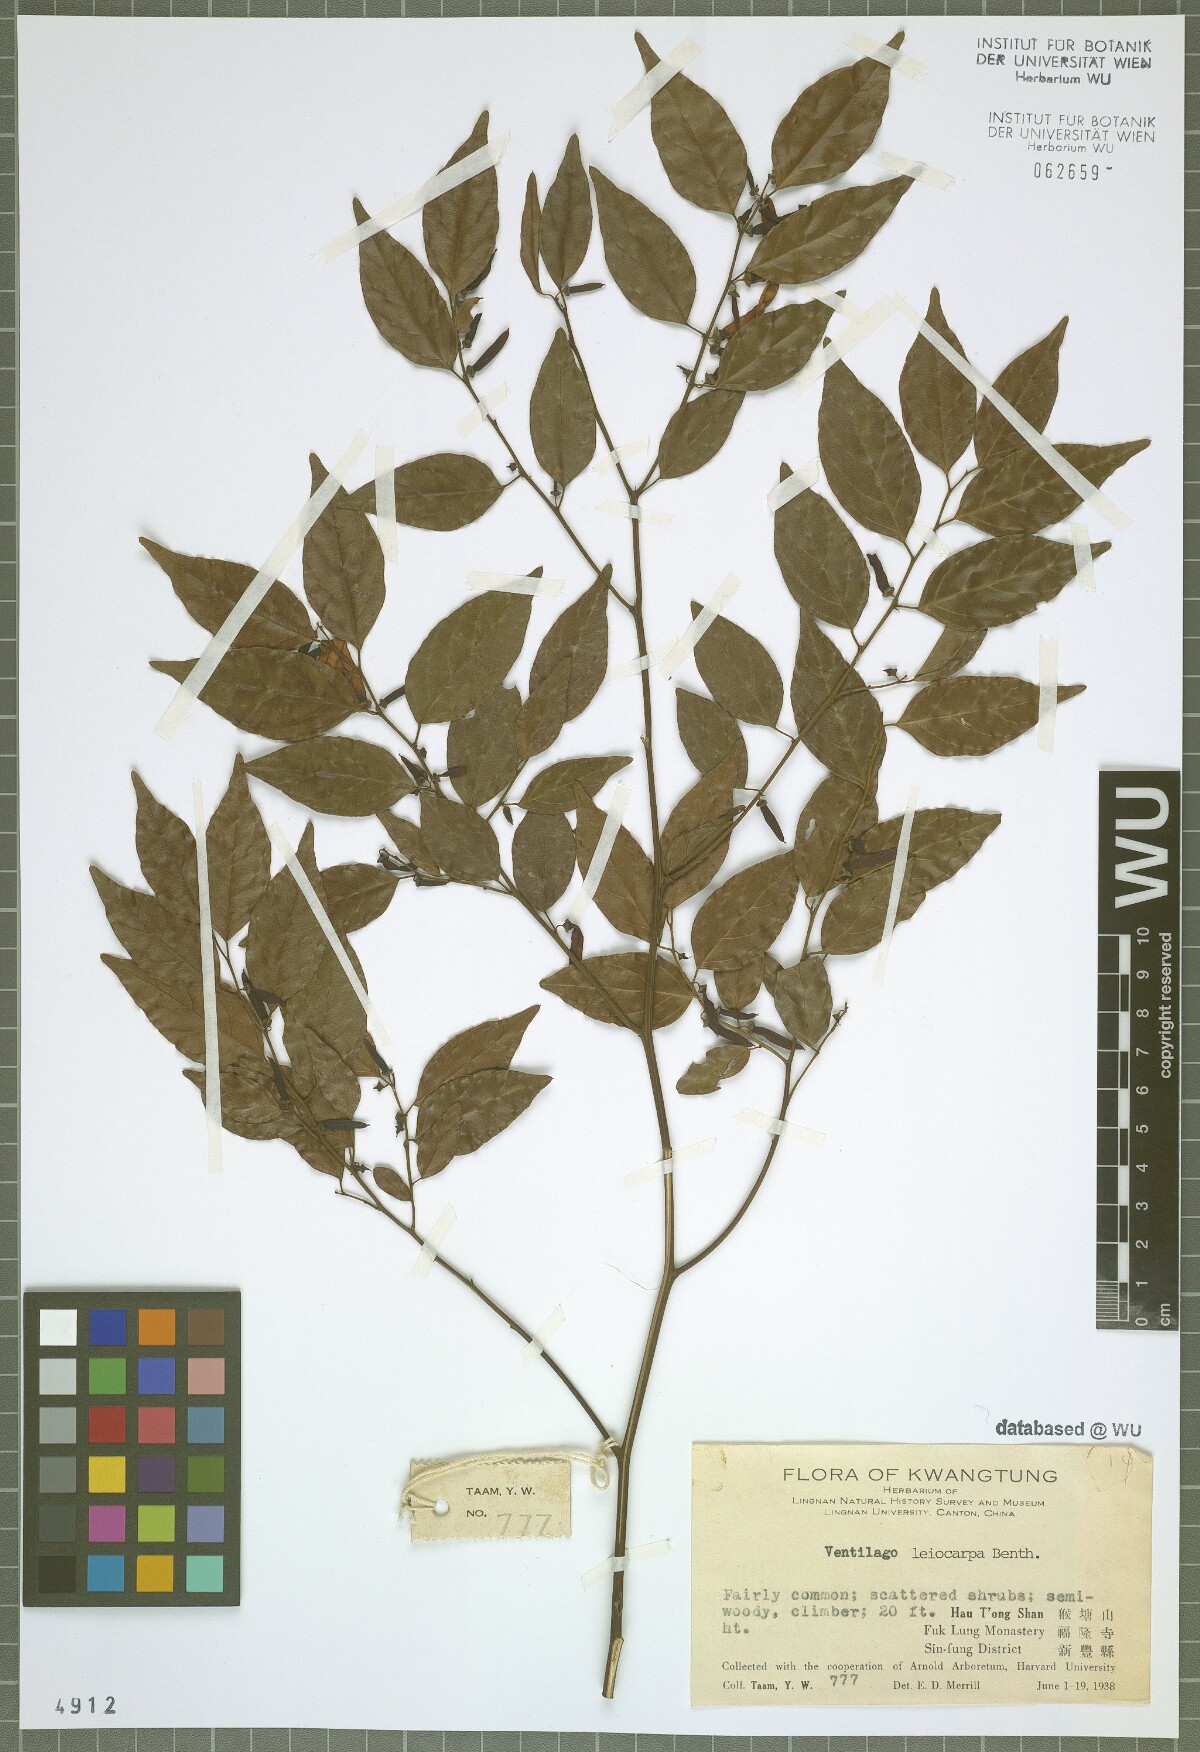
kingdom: Plantae
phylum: Tracheophyta
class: Magnoliopsida
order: Rosales
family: Rhamnaceae
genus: Ventilago
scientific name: Ventilago leiocarpa
